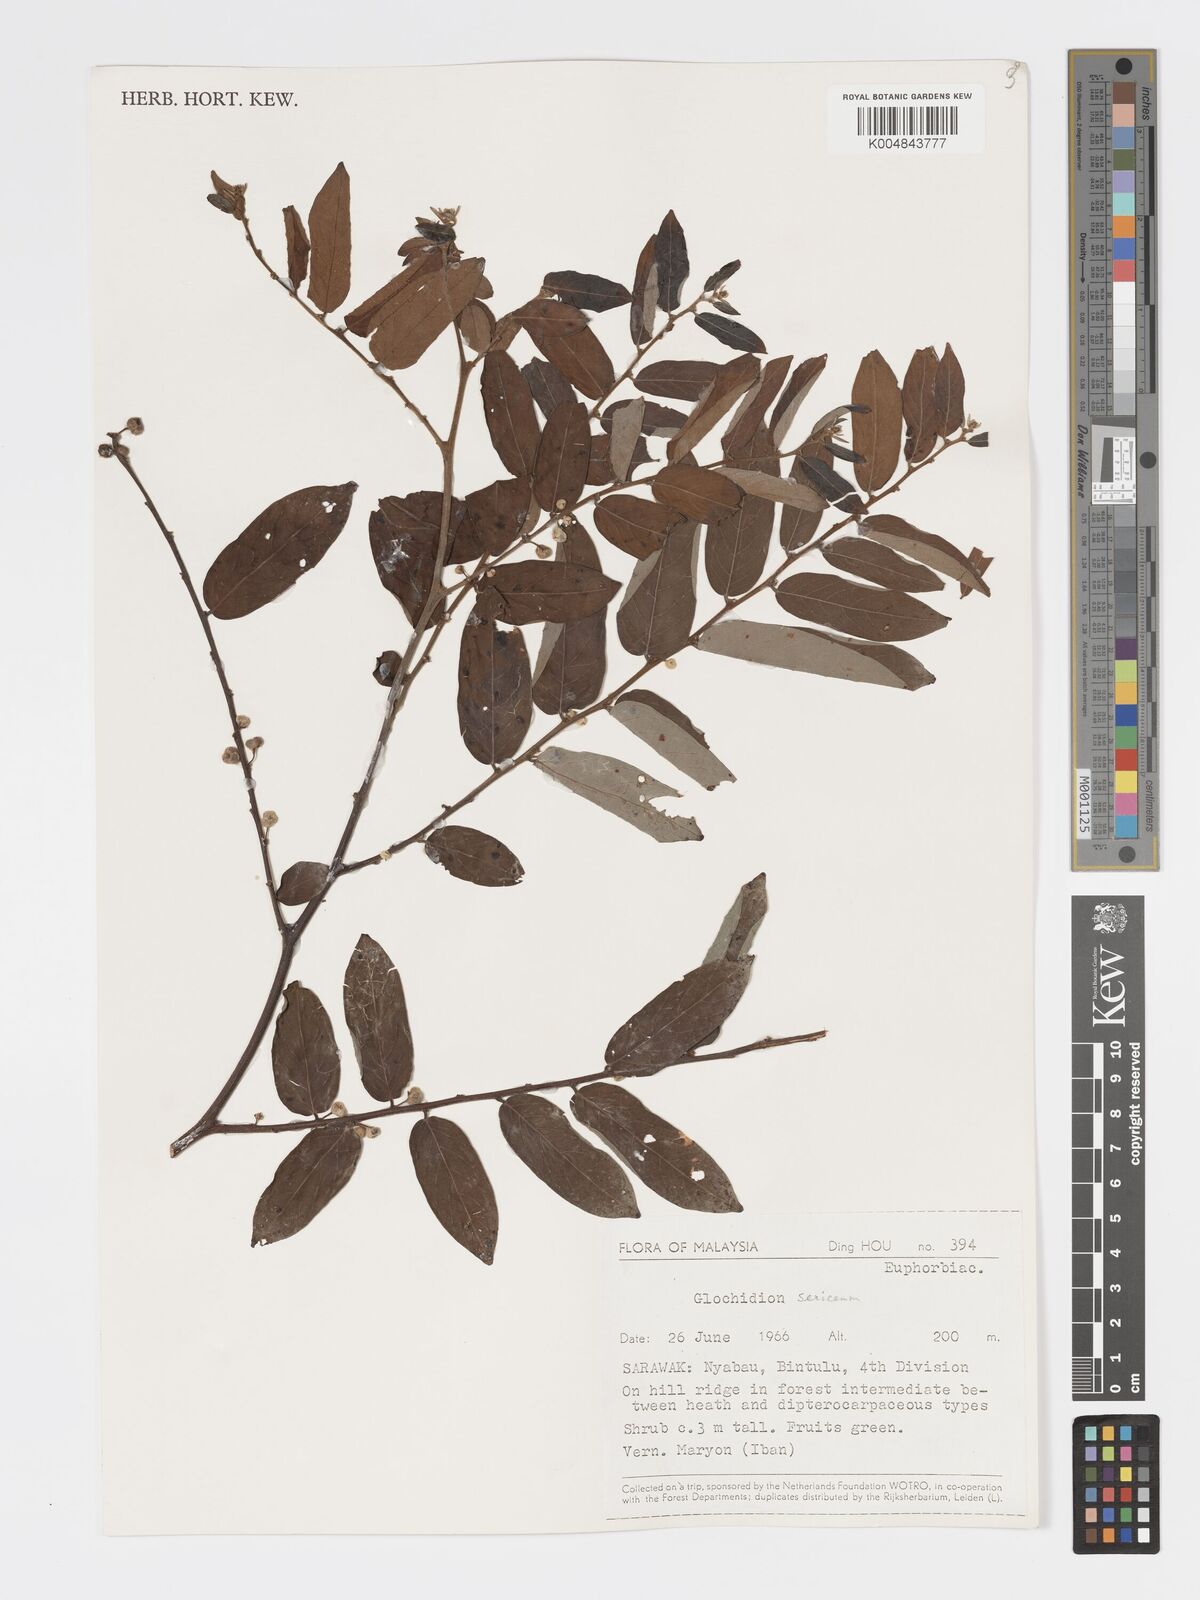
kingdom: Plantae
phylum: Tracheophyta
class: Magnoliopsida
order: Malpighiales
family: Phyllanthaceae
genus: Glochidion
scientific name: Glochidion sericeum
